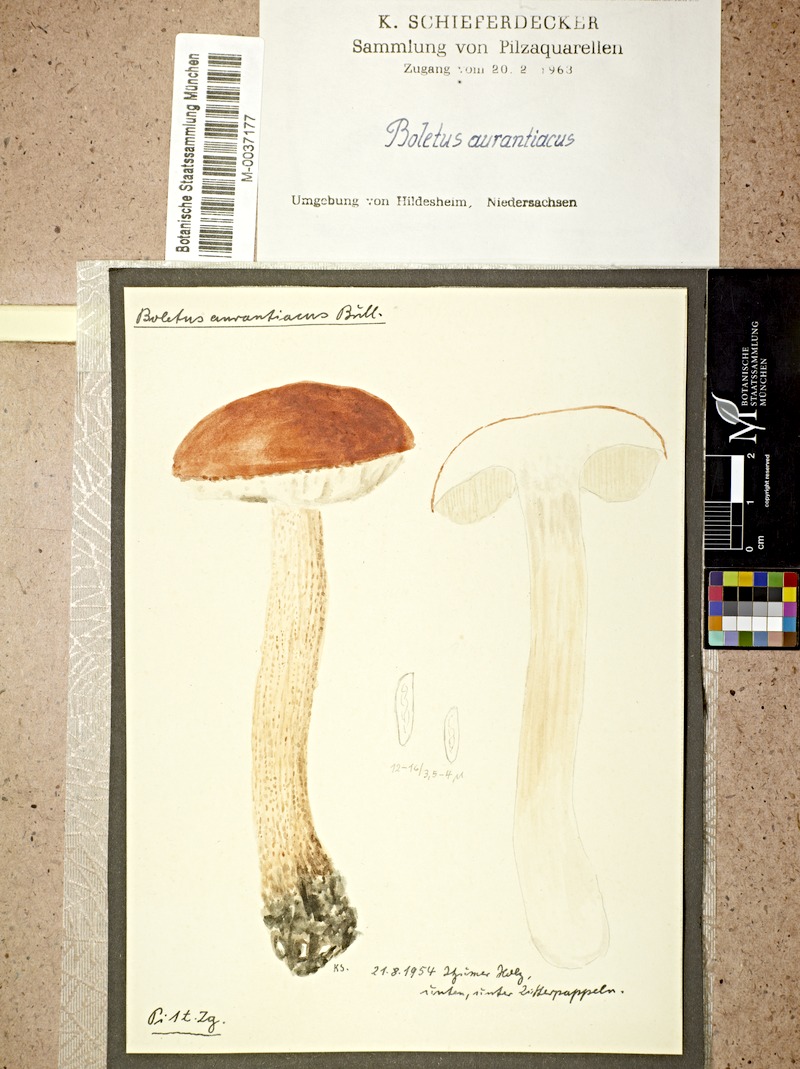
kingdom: Plantae
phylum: Tracheophyta
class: Magnoliopsida
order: Malpighiales
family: Salicaceae
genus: Populus
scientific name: Populus tremula
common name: European aspen
